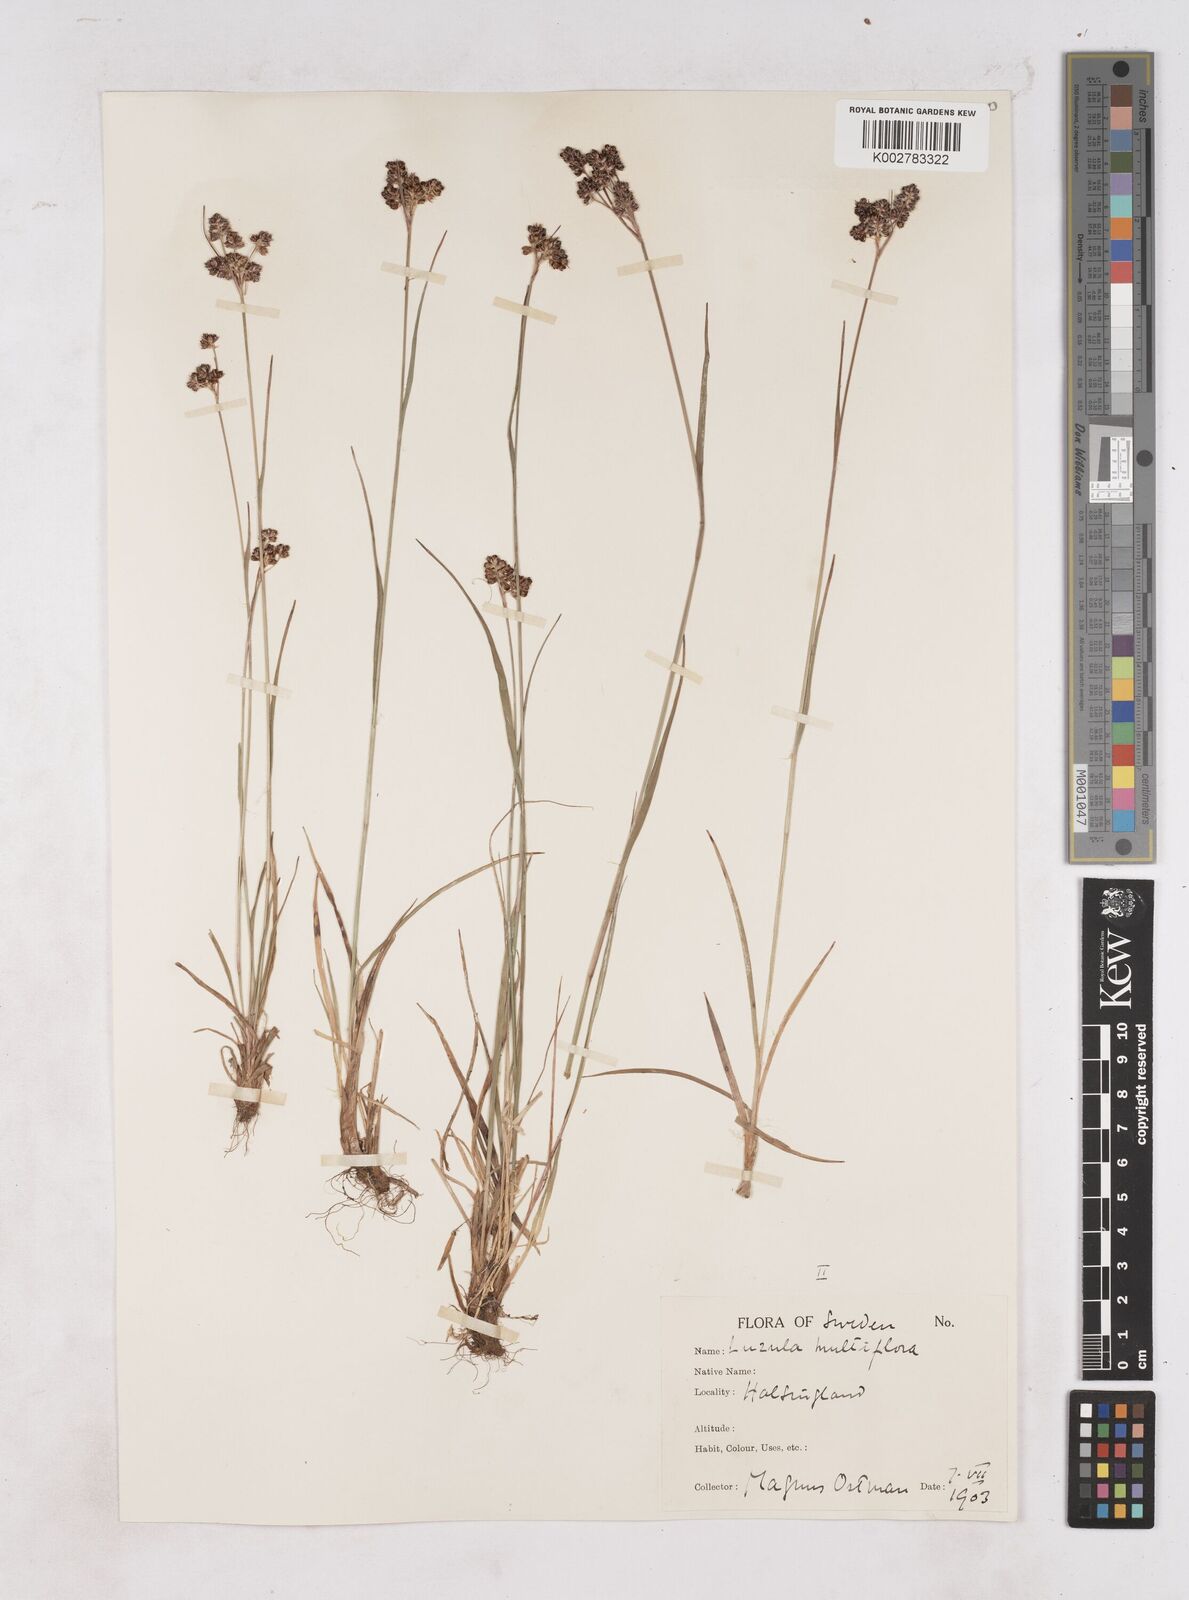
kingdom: Plantae
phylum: Tracheophyta
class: Liliopsida
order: Poales
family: Juncaceae
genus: Luzula
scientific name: Luzula multiflora
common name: Heath wood-rush
